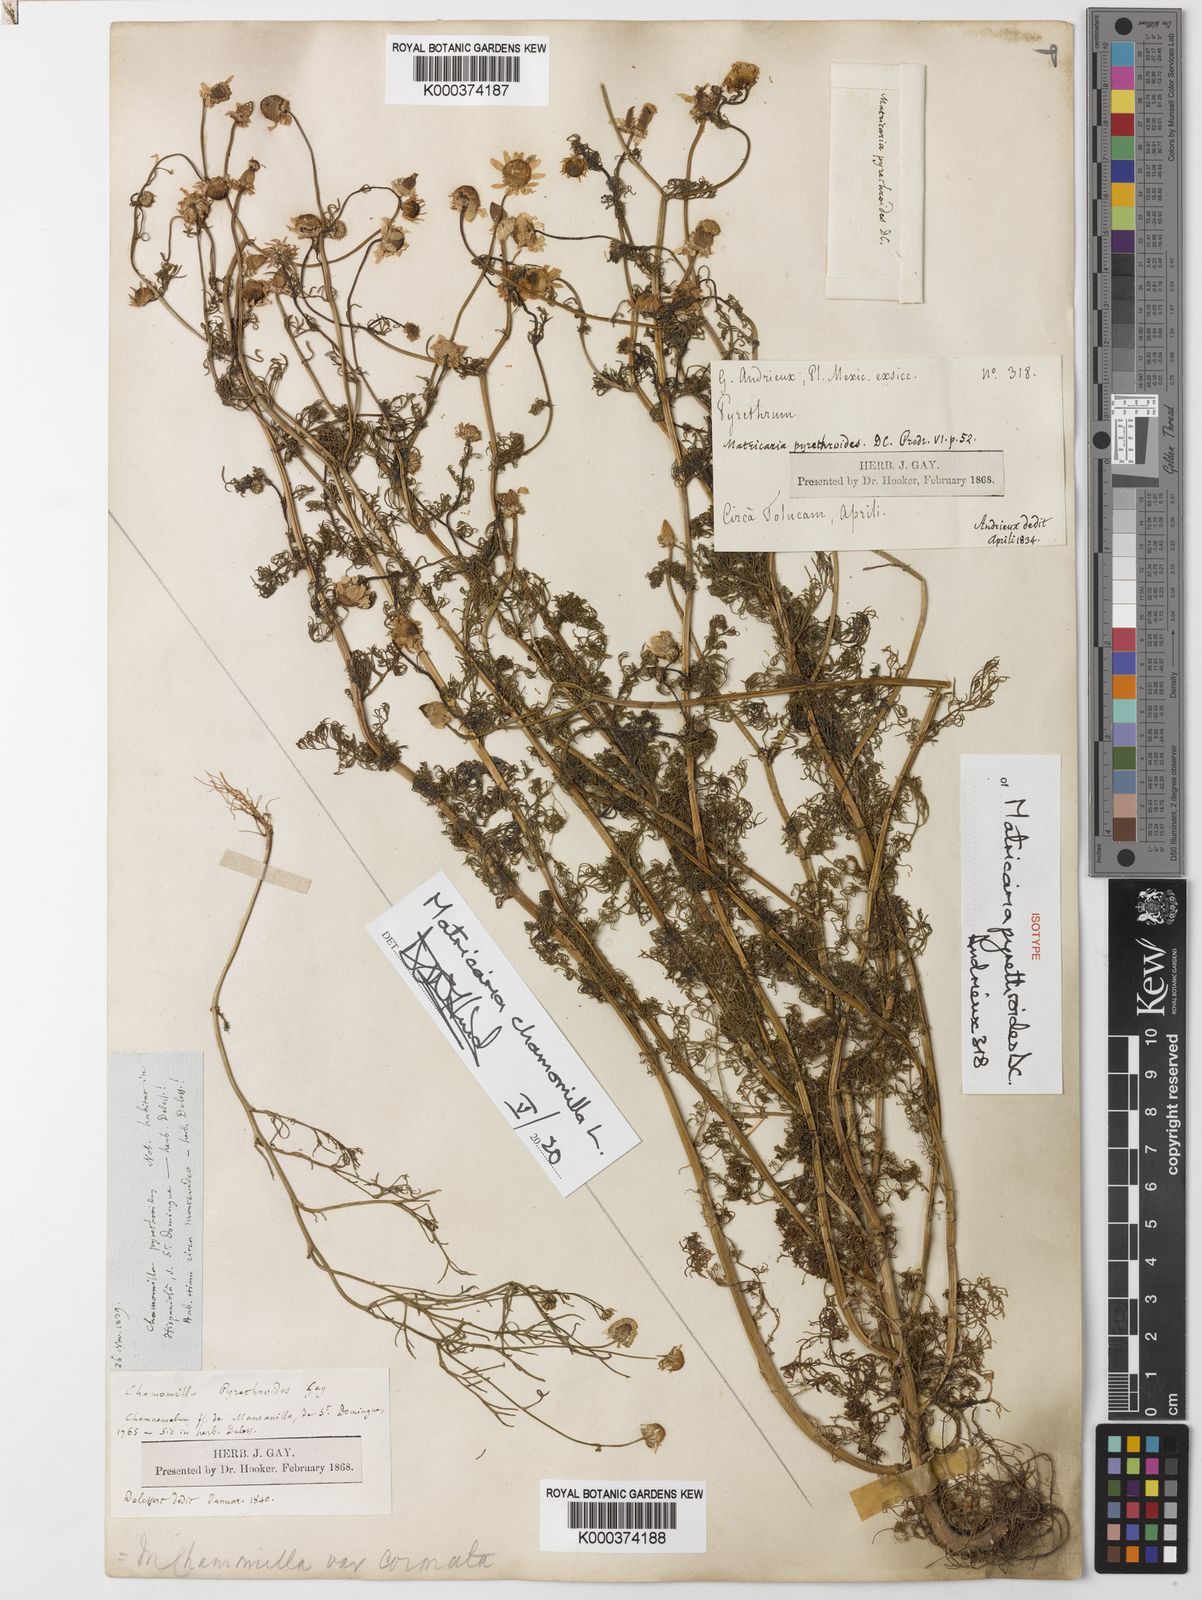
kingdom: Plantae
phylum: Tracheophyta
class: Magnoliopsida
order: Asterales
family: Asteraceae
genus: Matricaria
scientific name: Matricaria chamomilla
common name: Scented mayweed
